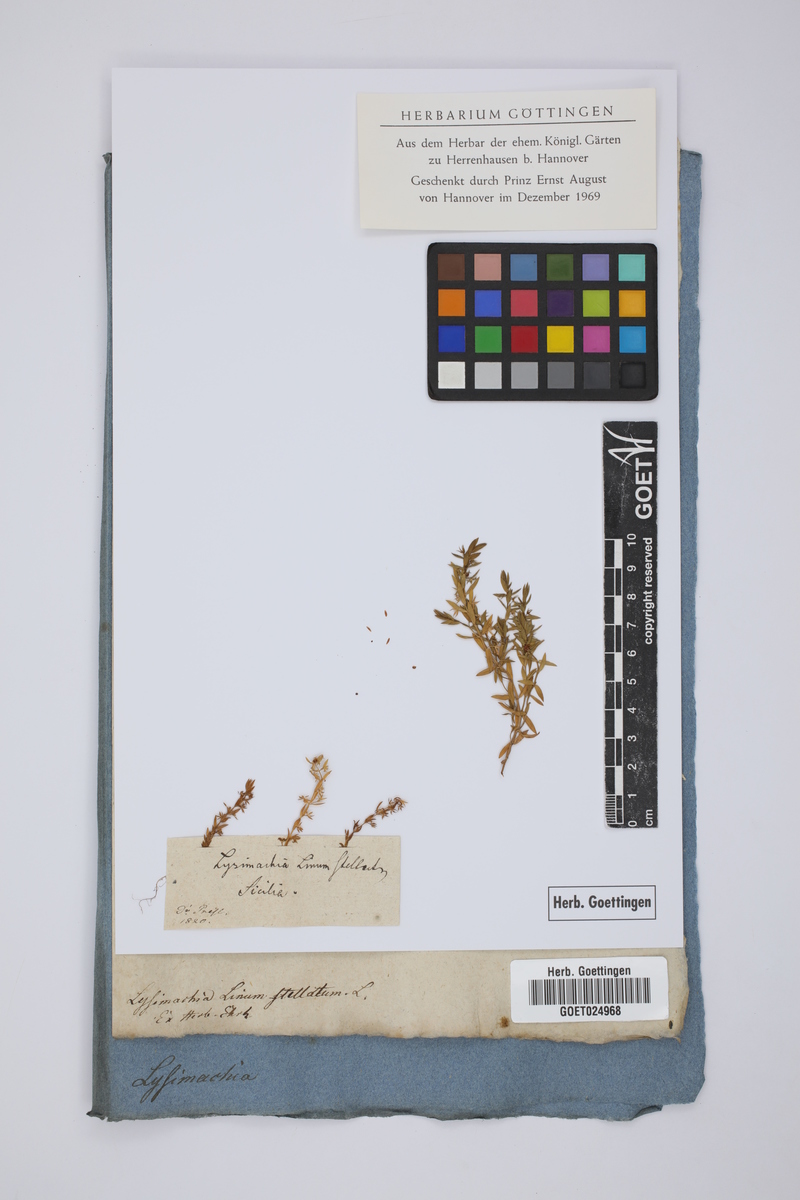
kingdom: Plantae
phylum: Tracheophyta
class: Magnoliopsida
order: Ericales
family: Primulaceae
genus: Lysimachia
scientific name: Lysimachia linum-stellatum
